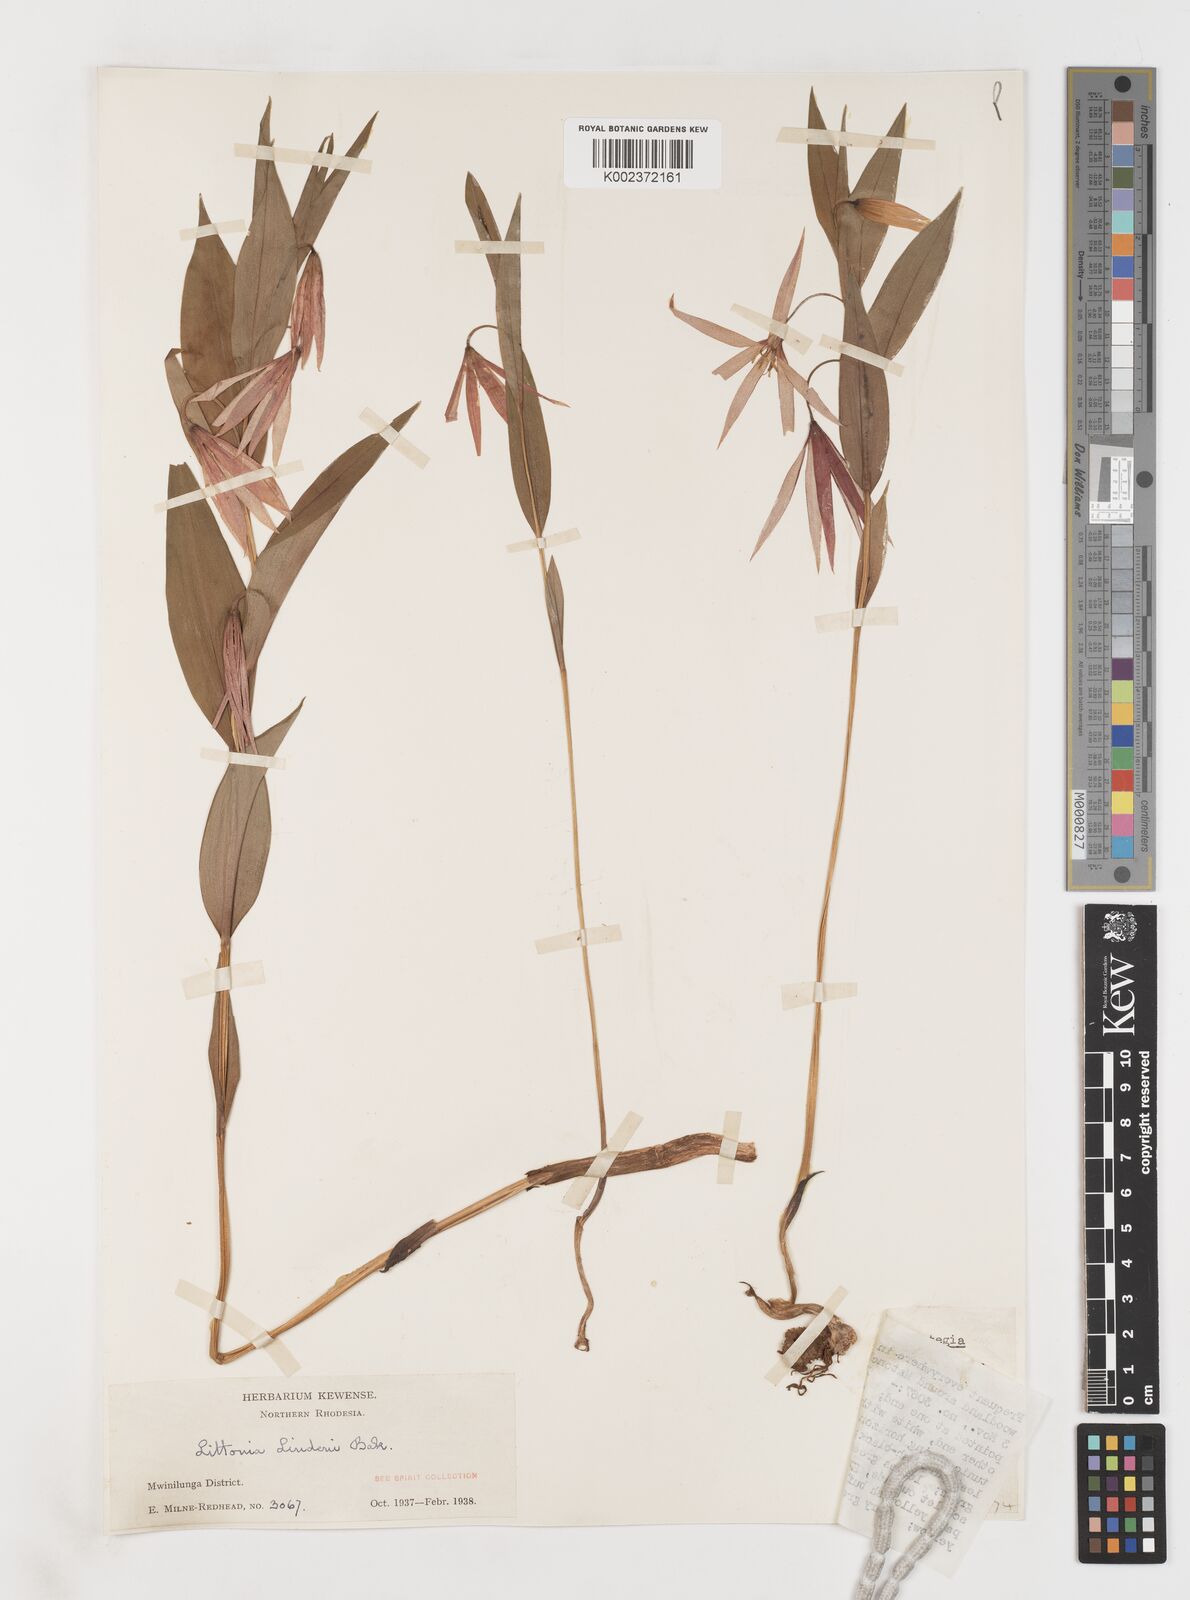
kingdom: Plantae
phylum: Tracheophyta
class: Liliopsida
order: Liliales
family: Colchicaceae
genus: Gloriosa
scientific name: Gloriosa lindenii
